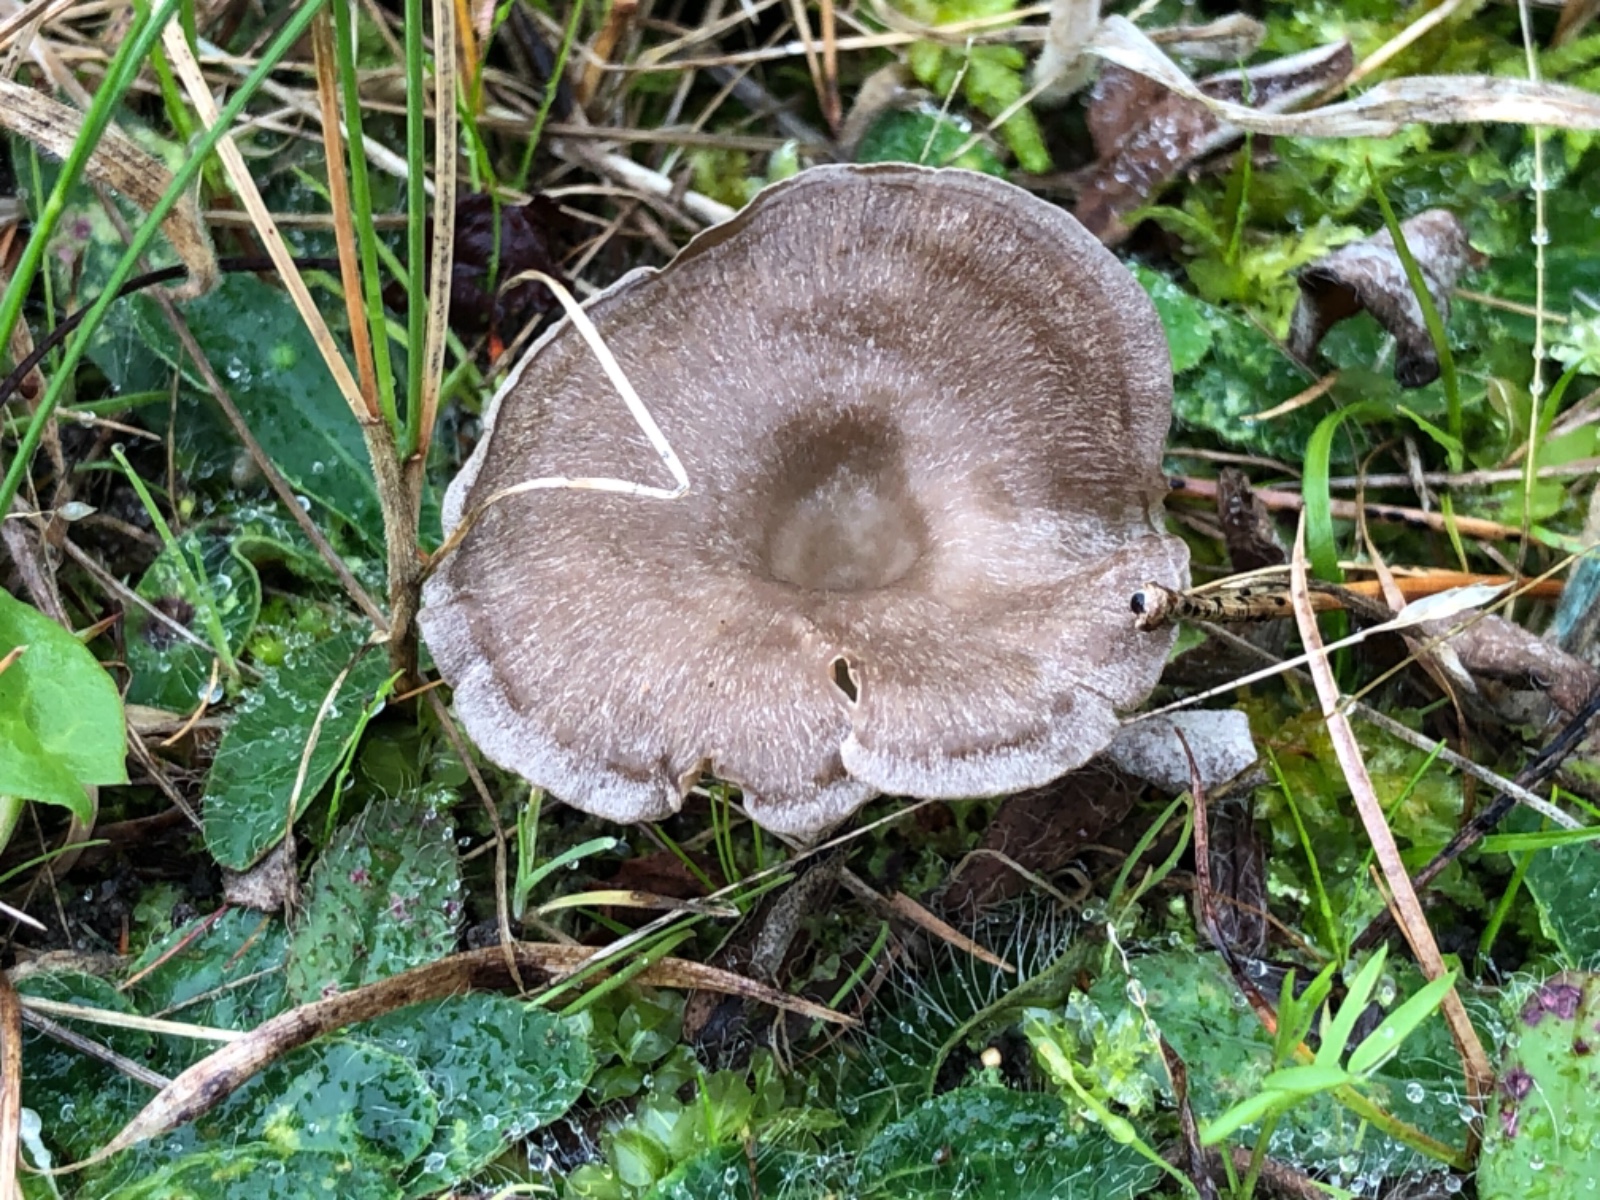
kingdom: Fungi
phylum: Basidiomycota
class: Agaricomycetes
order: Agaricales
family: Entolomataceae
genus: Entoloma
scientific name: Entoloma undatum
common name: bæltet rødblad
